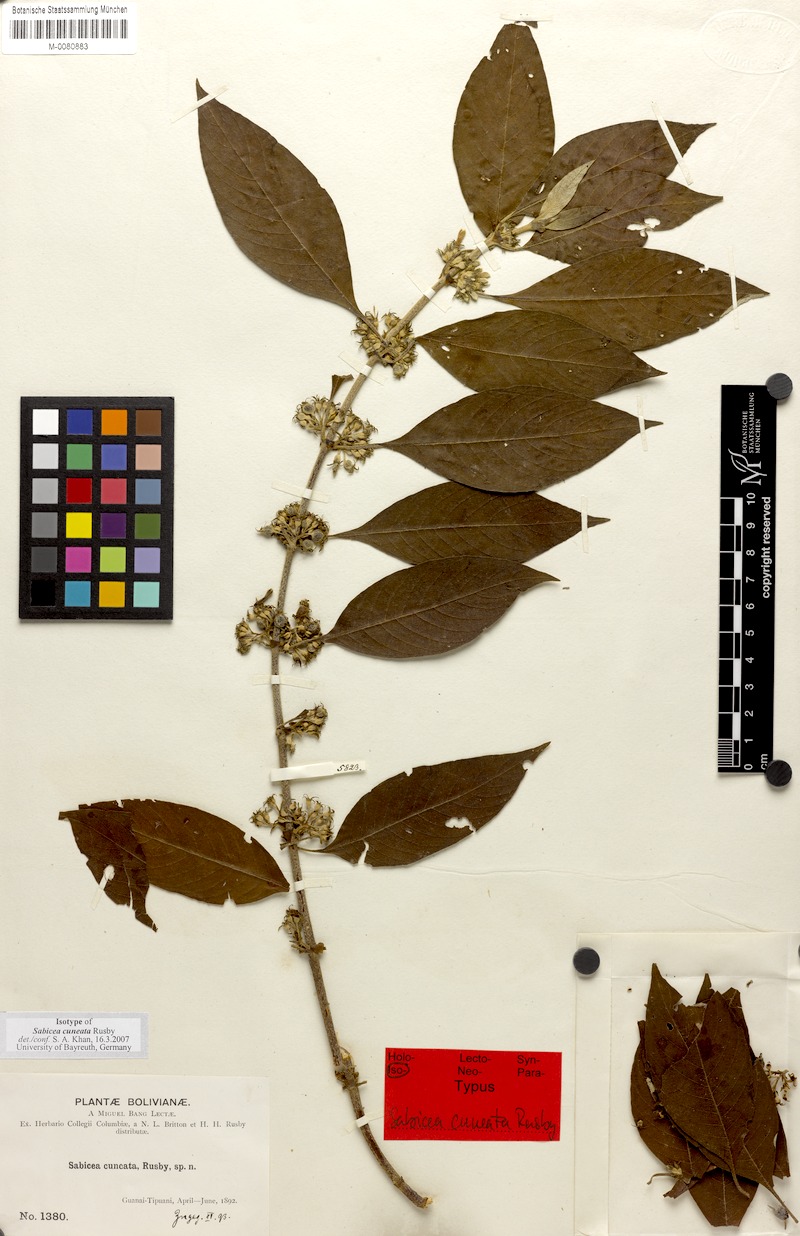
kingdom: Plantae
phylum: Tracheophyta
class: Magnoliopsida
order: Gentianales
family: Rubiaceae
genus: Sabicea
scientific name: Sabicea cuneata
